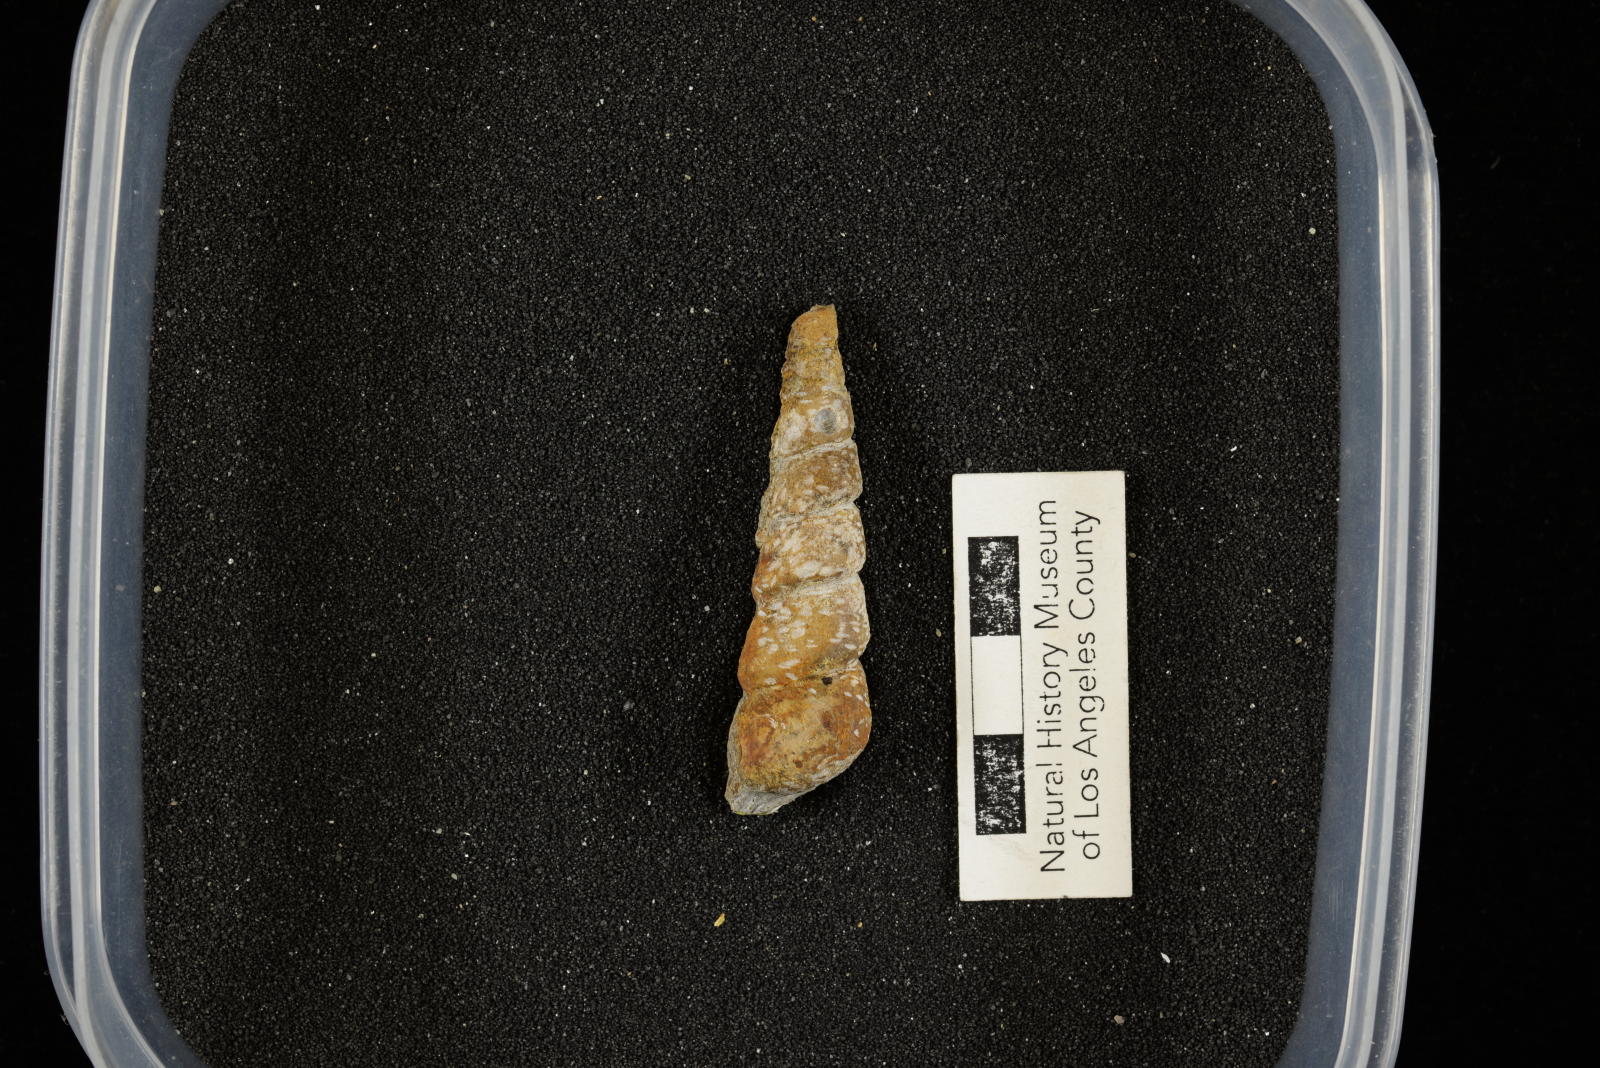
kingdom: Animalia
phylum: Mollusca
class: Gastropoda
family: Turritellidae
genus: Turritella
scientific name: Turritella chaneyi
